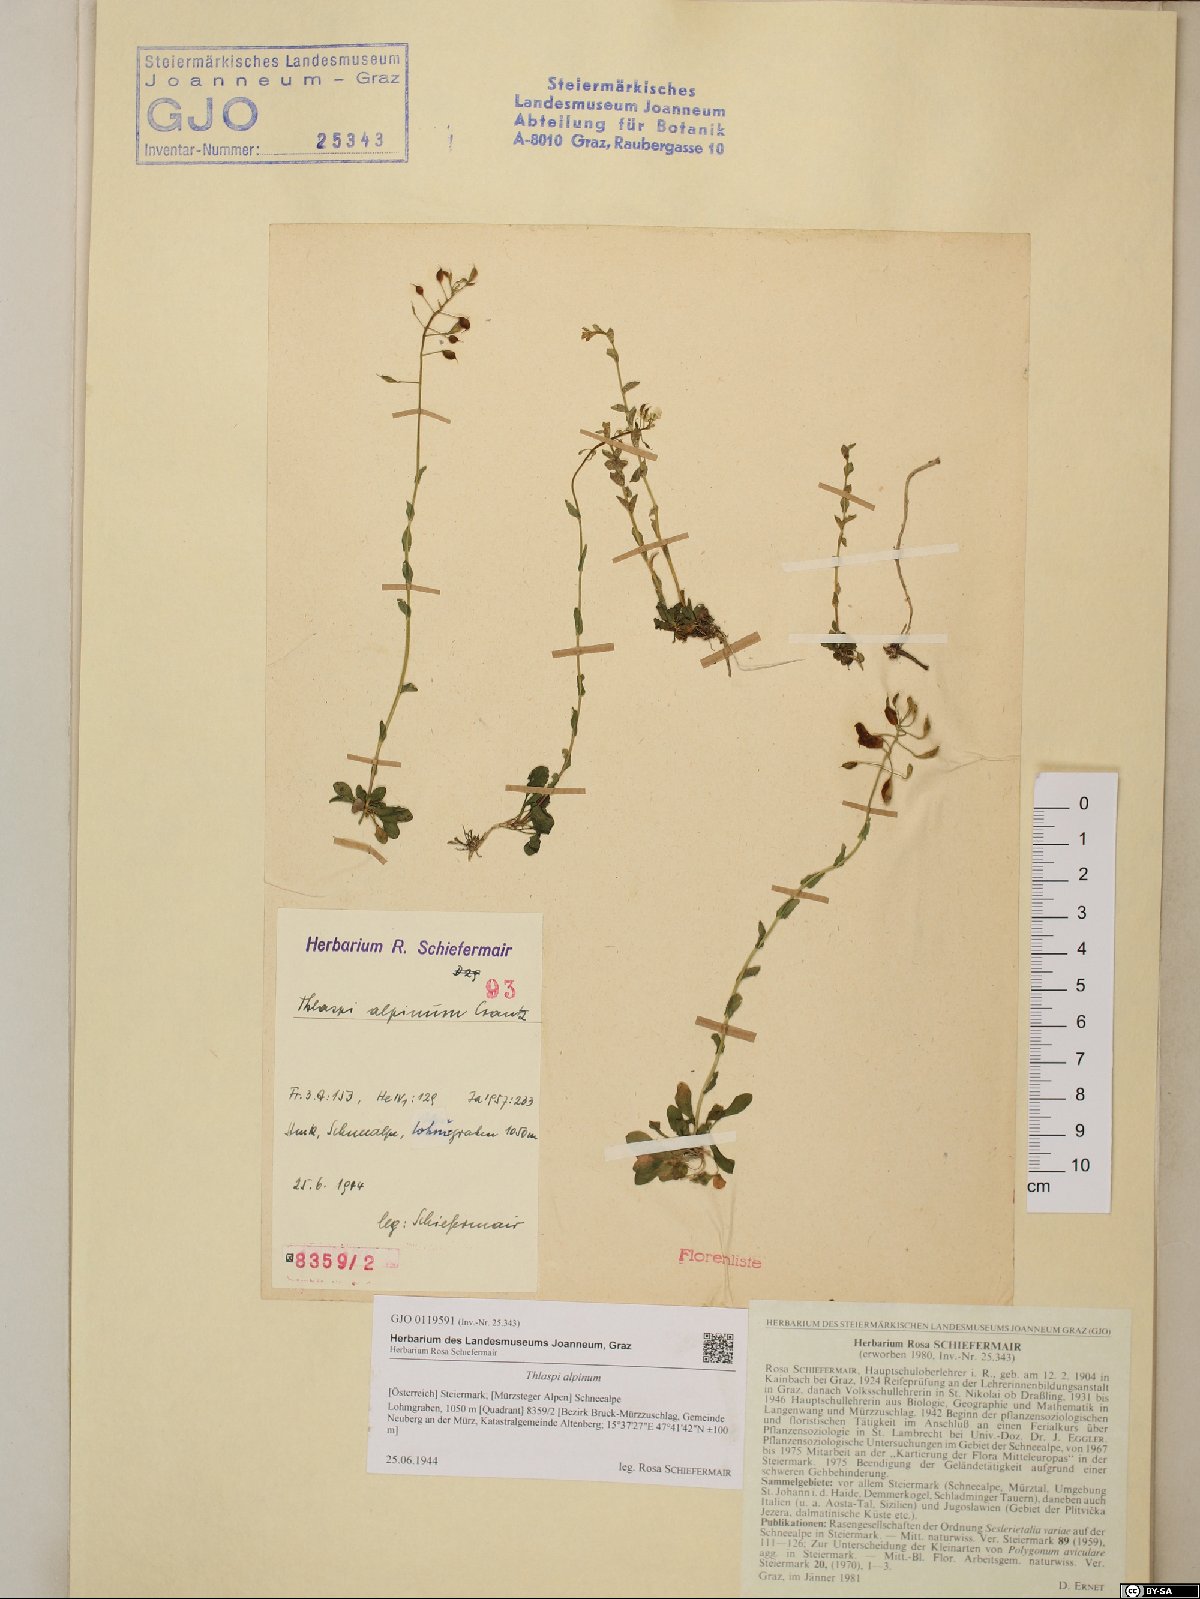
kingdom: Plantae
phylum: Tracheophyta
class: Magnoliopsida
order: Brassicales
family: Brassicaceae
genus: Noccaea
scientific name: Noccaea alpestris
